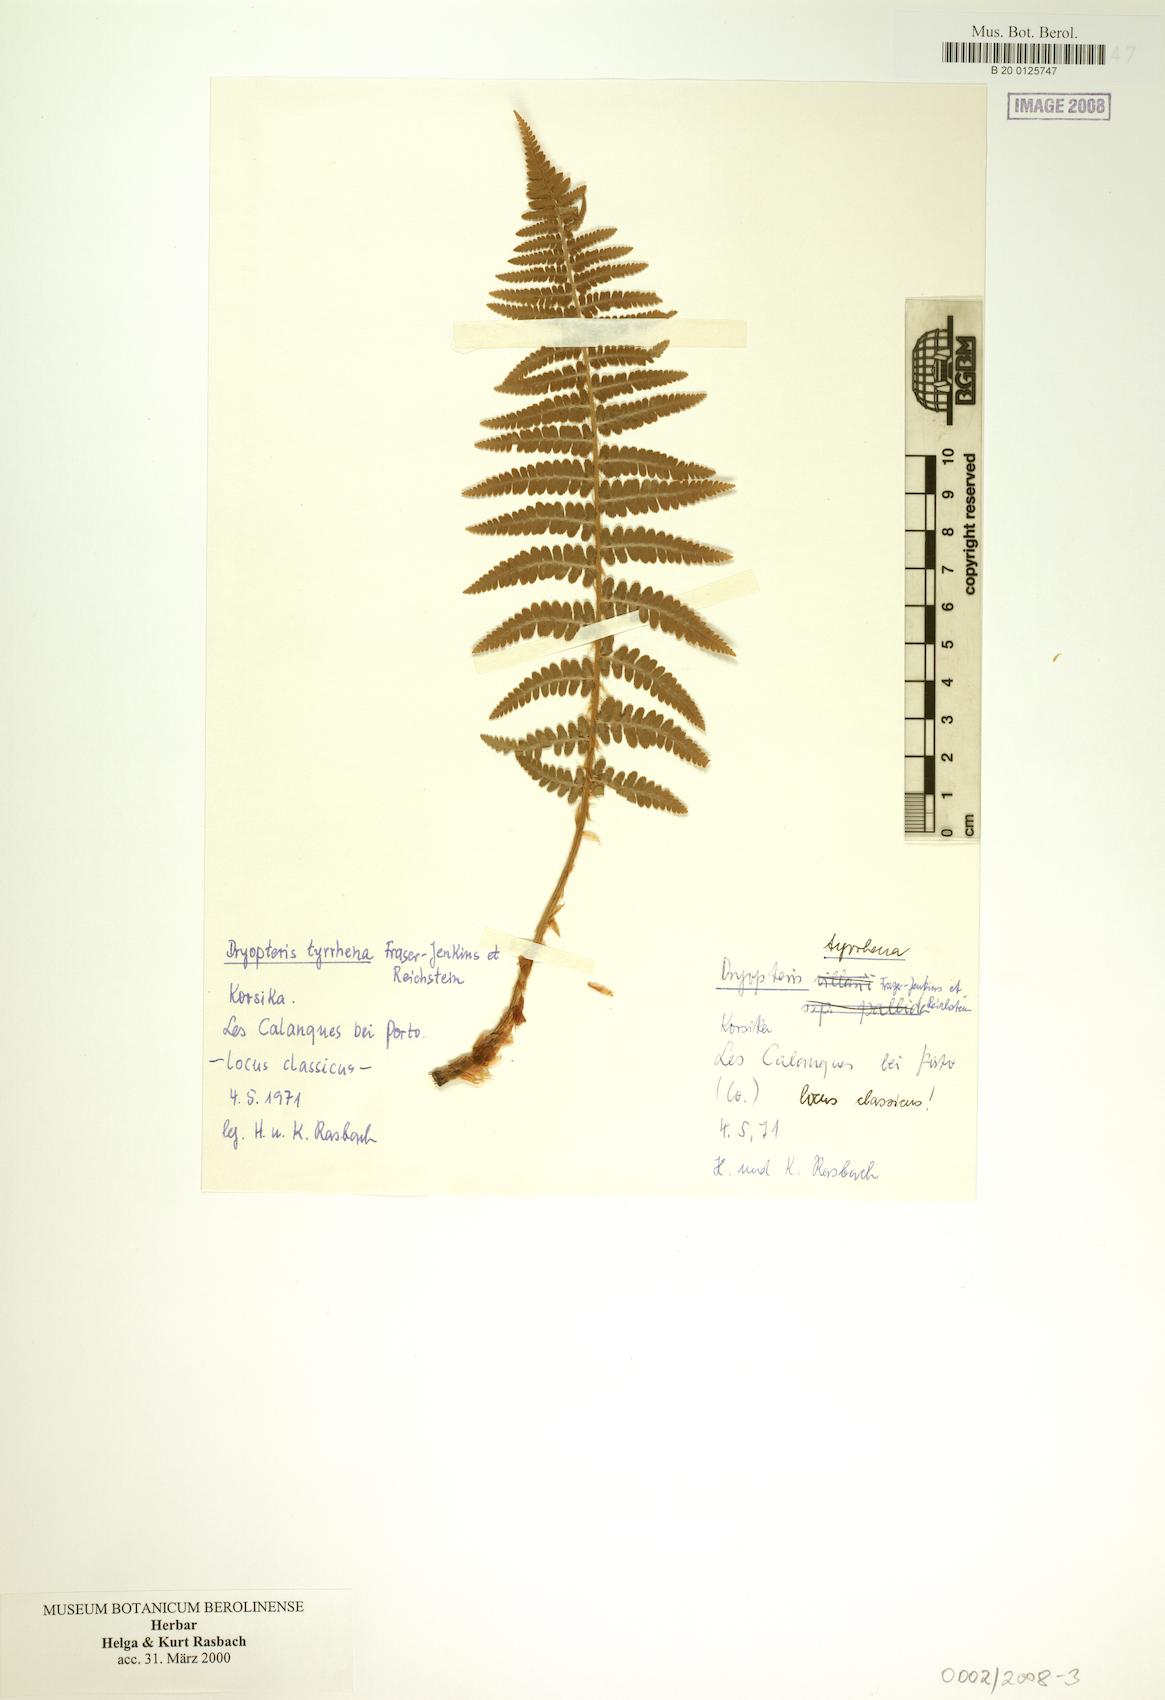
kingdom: Plantae
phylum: Tracheophyta
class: Polypodiopsida
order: Polypodiales
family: Dryopteridaceae
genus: Dryopteris
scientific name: Dryopteris tyrrhena
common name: Mediterranean buckler-fern
